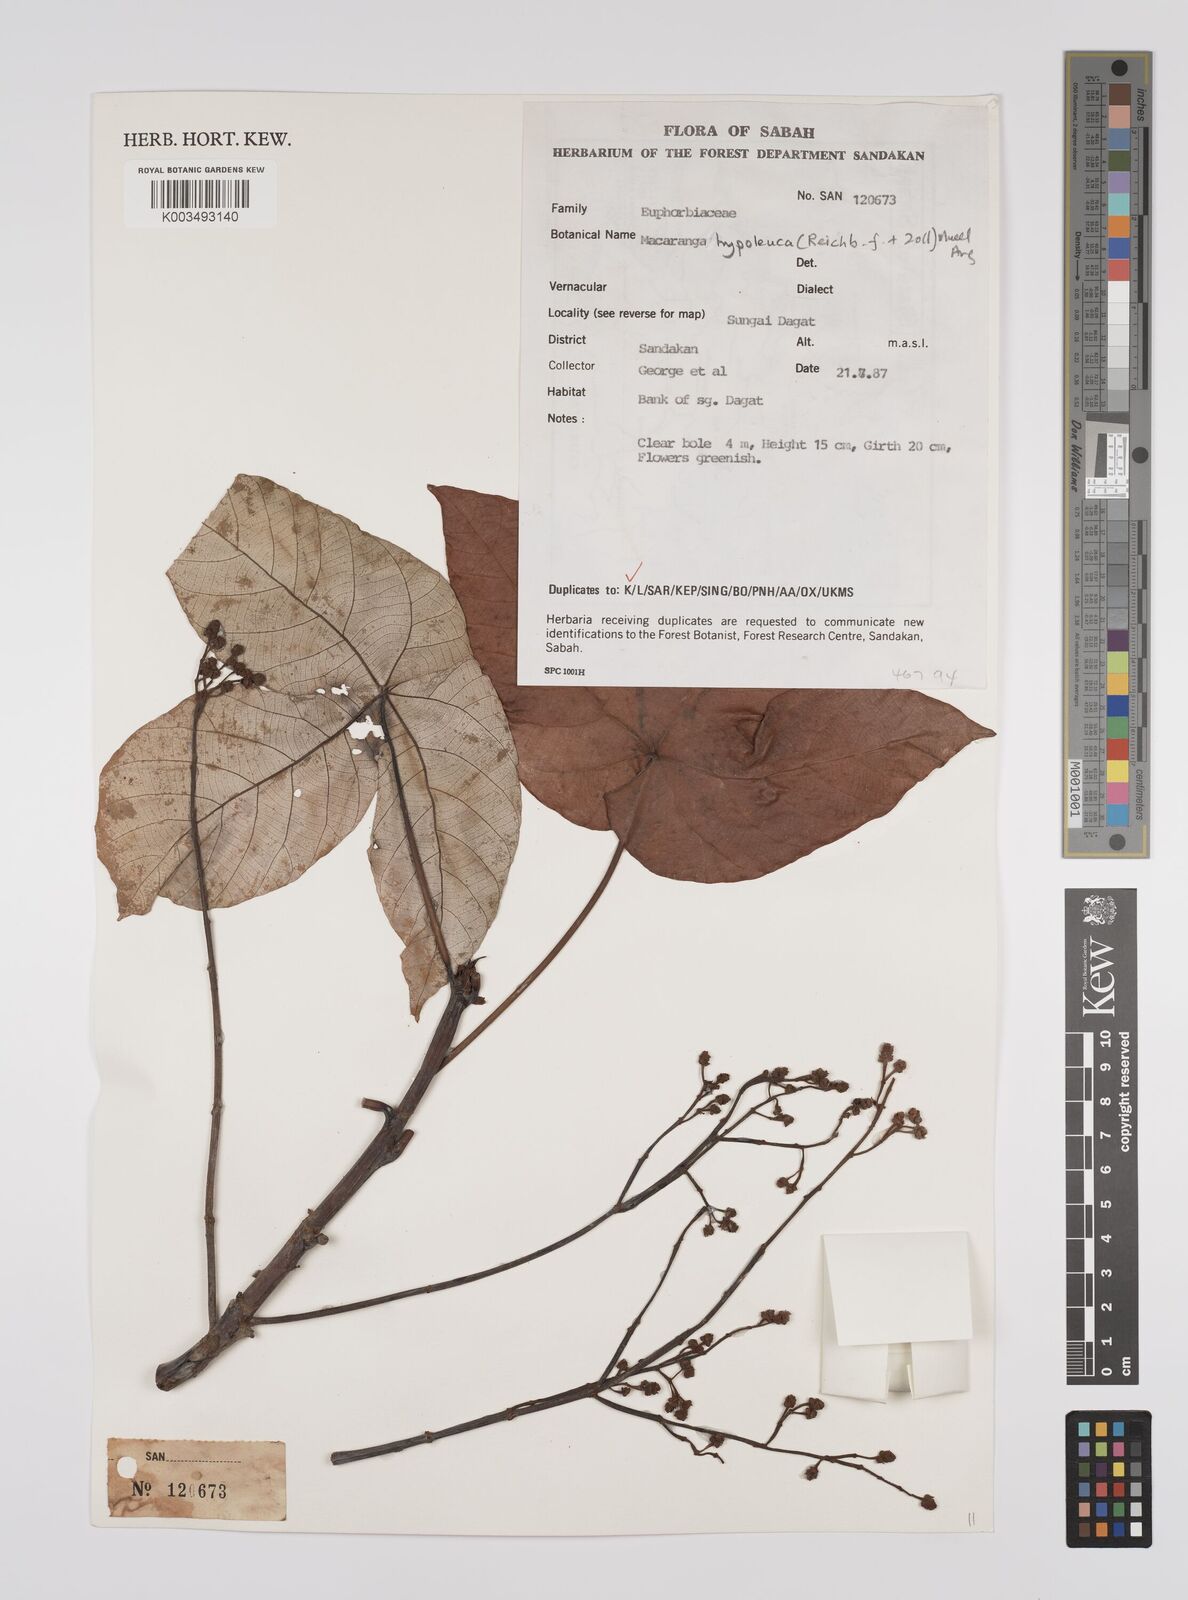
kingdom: Plantae
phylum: Tracheophyta
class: Magnoliopsida
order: Malpighiales
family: Euphorbiaceae
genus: Macaranga
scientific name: Macaranga hypoleuca
